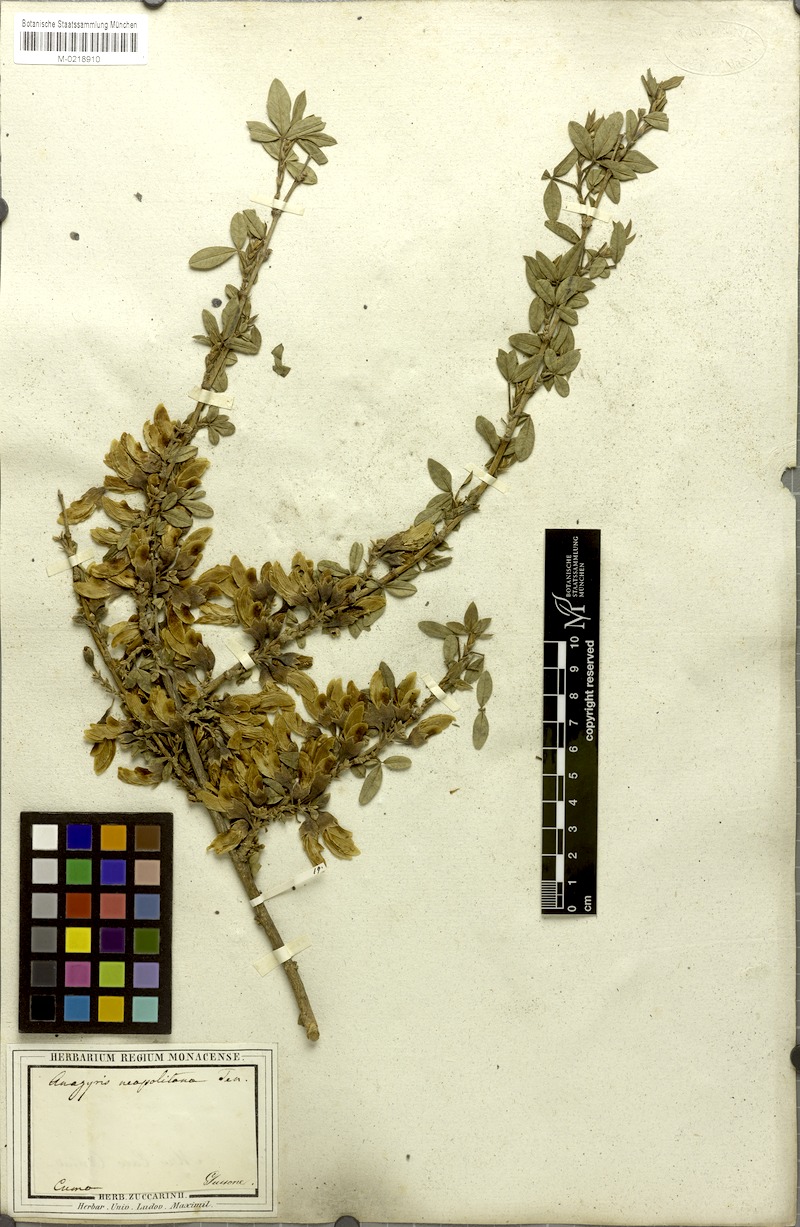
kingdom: Plantae
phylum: Tracheophyta
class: Magnoliopsida
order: Fabales
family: Fabaceae
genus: Anagyris
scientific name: Anagyris foetida
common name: Stinking bean trefoil
